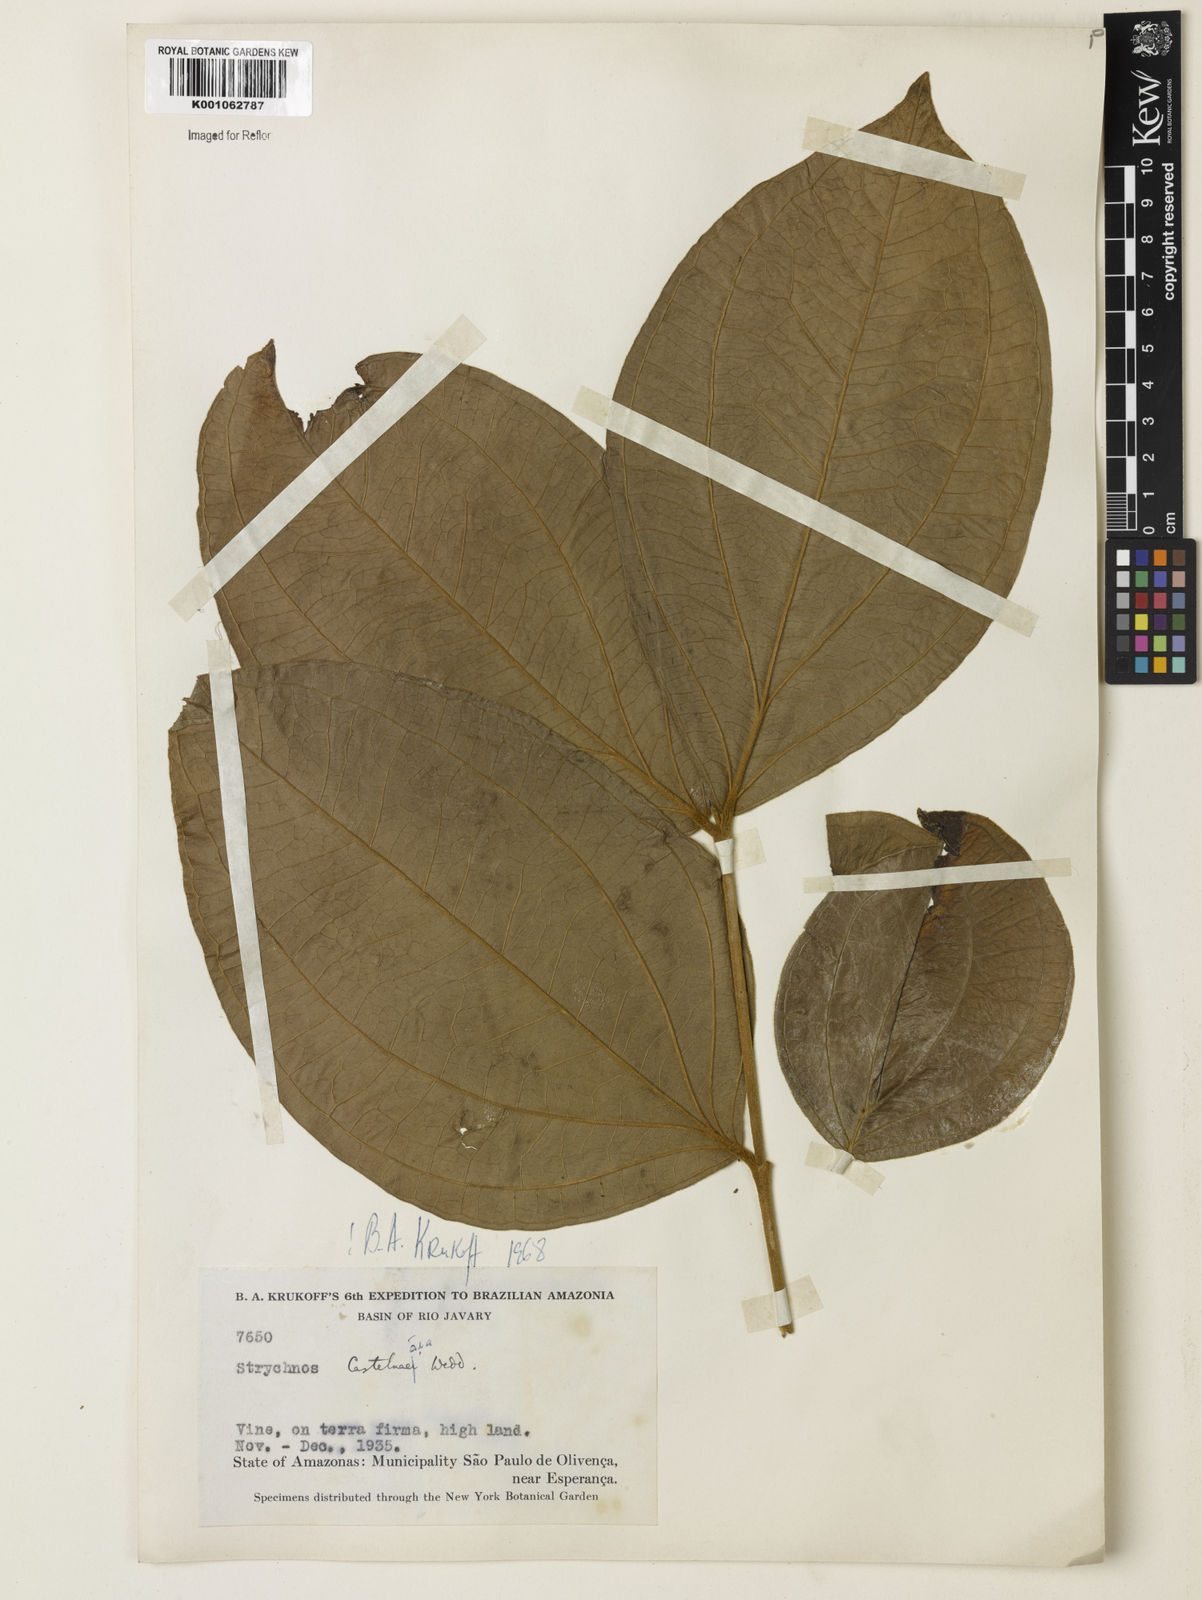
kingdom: Plantae
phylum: Tracheophyta
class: Magnoliopsida
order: Gentianales
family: Loganiaceae
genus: Strychnos
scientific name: Strychnos
